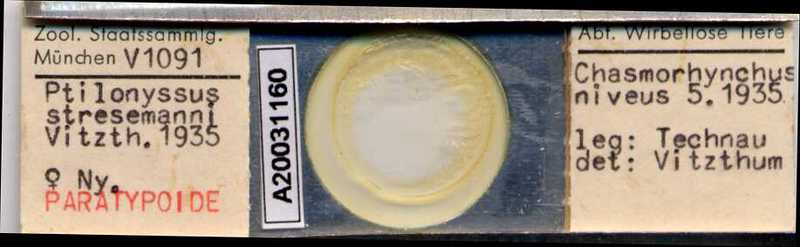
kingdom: Animalia
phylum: Arthropoda
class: Arachnida
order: Mesostigmata
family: Rhinonyssidae
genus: Ptilonyssus
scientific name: Ptilonyssus
